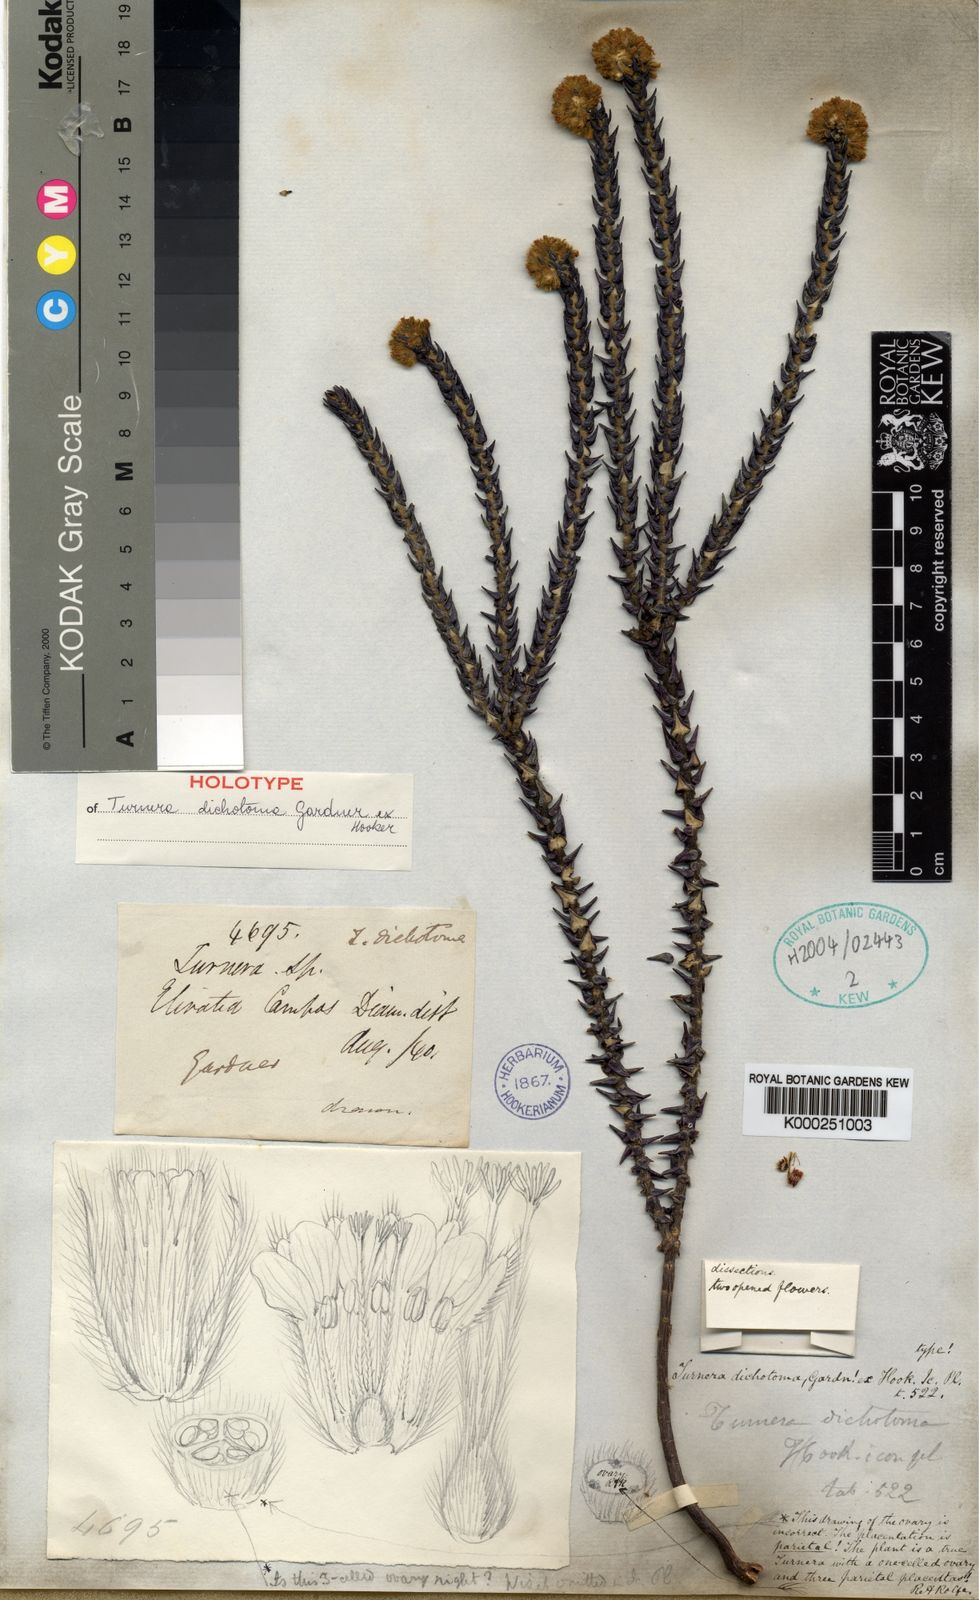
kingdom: Plantae
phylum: Tracheophyta
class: Magnoliopsida
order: Malpighiales
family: Turneraceae
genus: Turnera
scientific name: Turnera dichotoma
